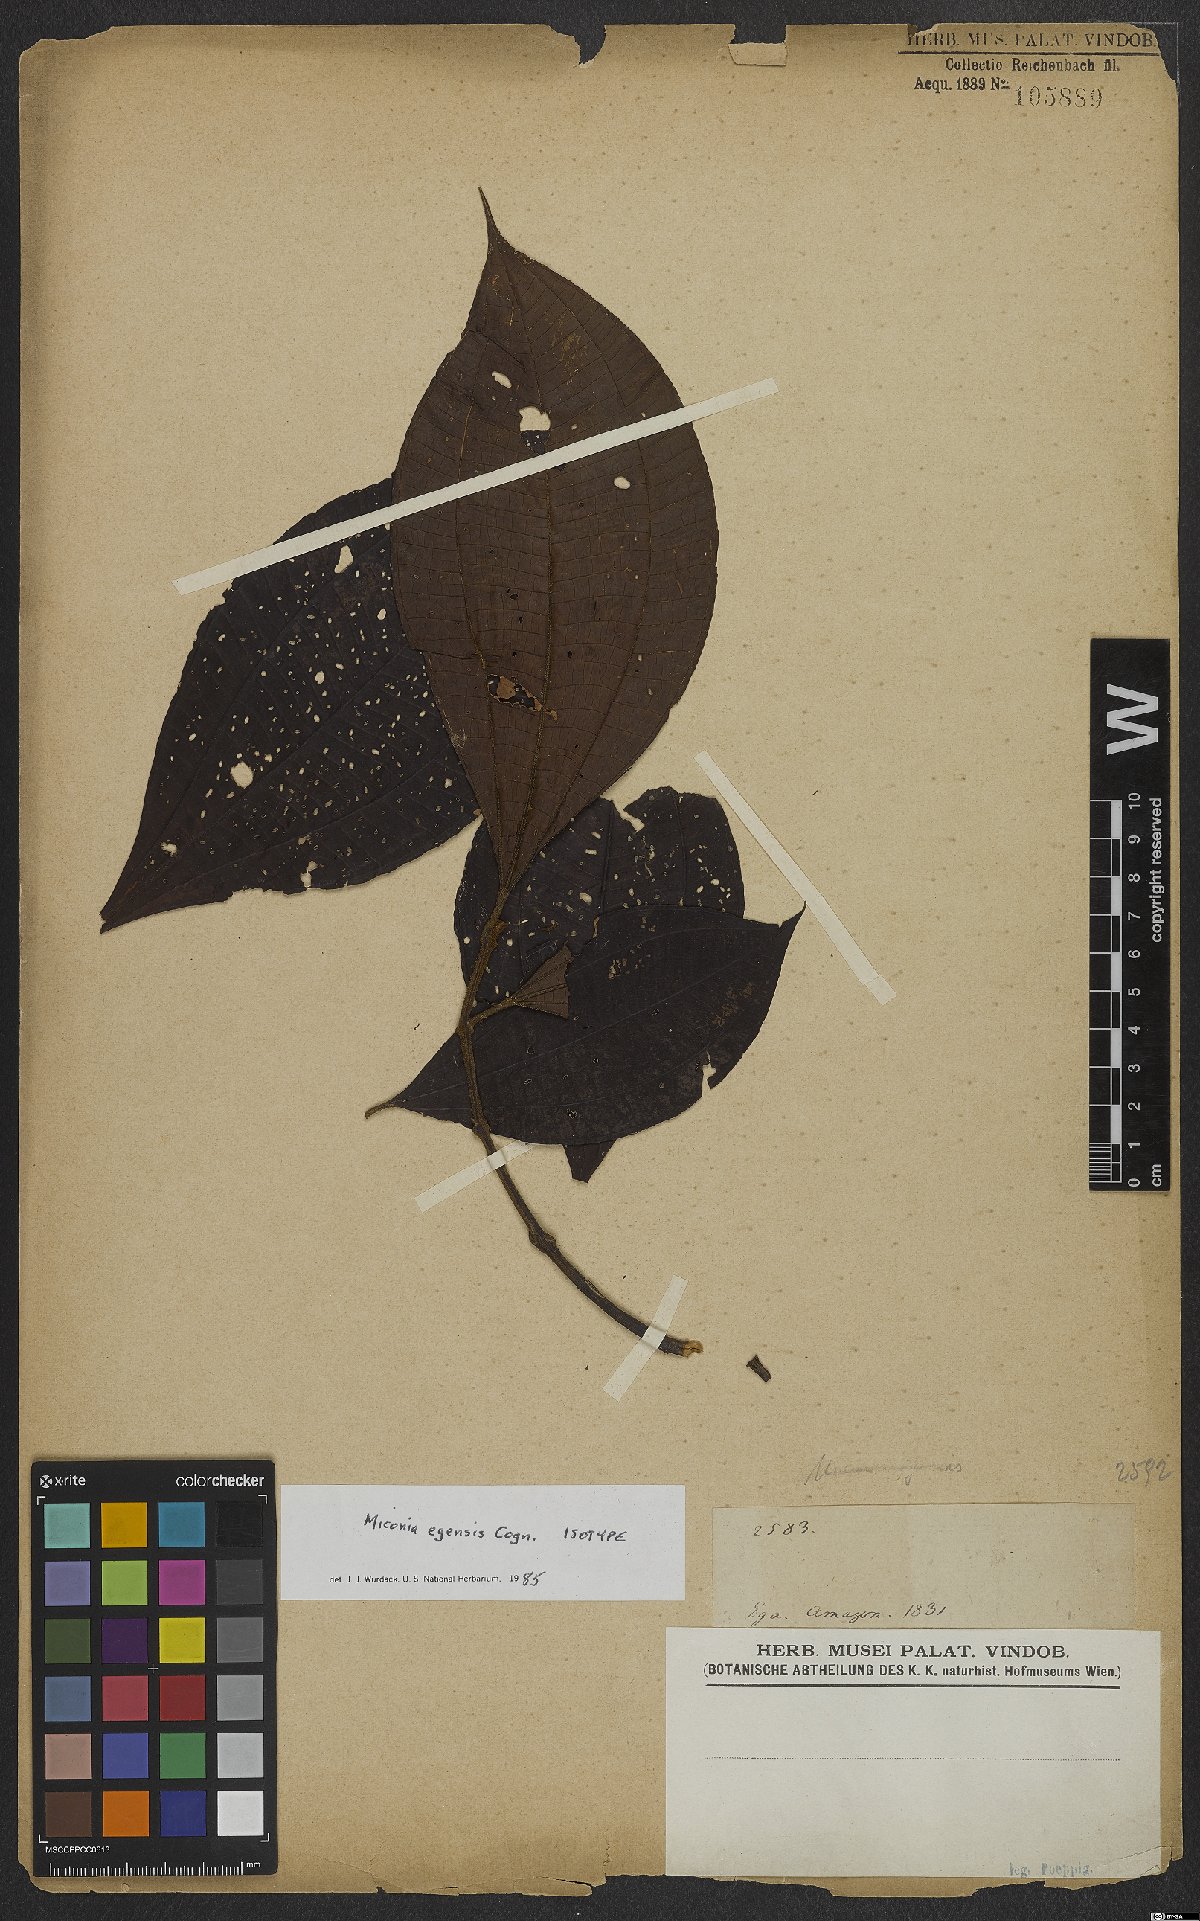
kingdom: Plantae
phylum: Tracheophyta
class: Magnoliopsida
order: Myrtales
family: Melastomataceae
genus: Miconia
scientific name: Miconia egensis
